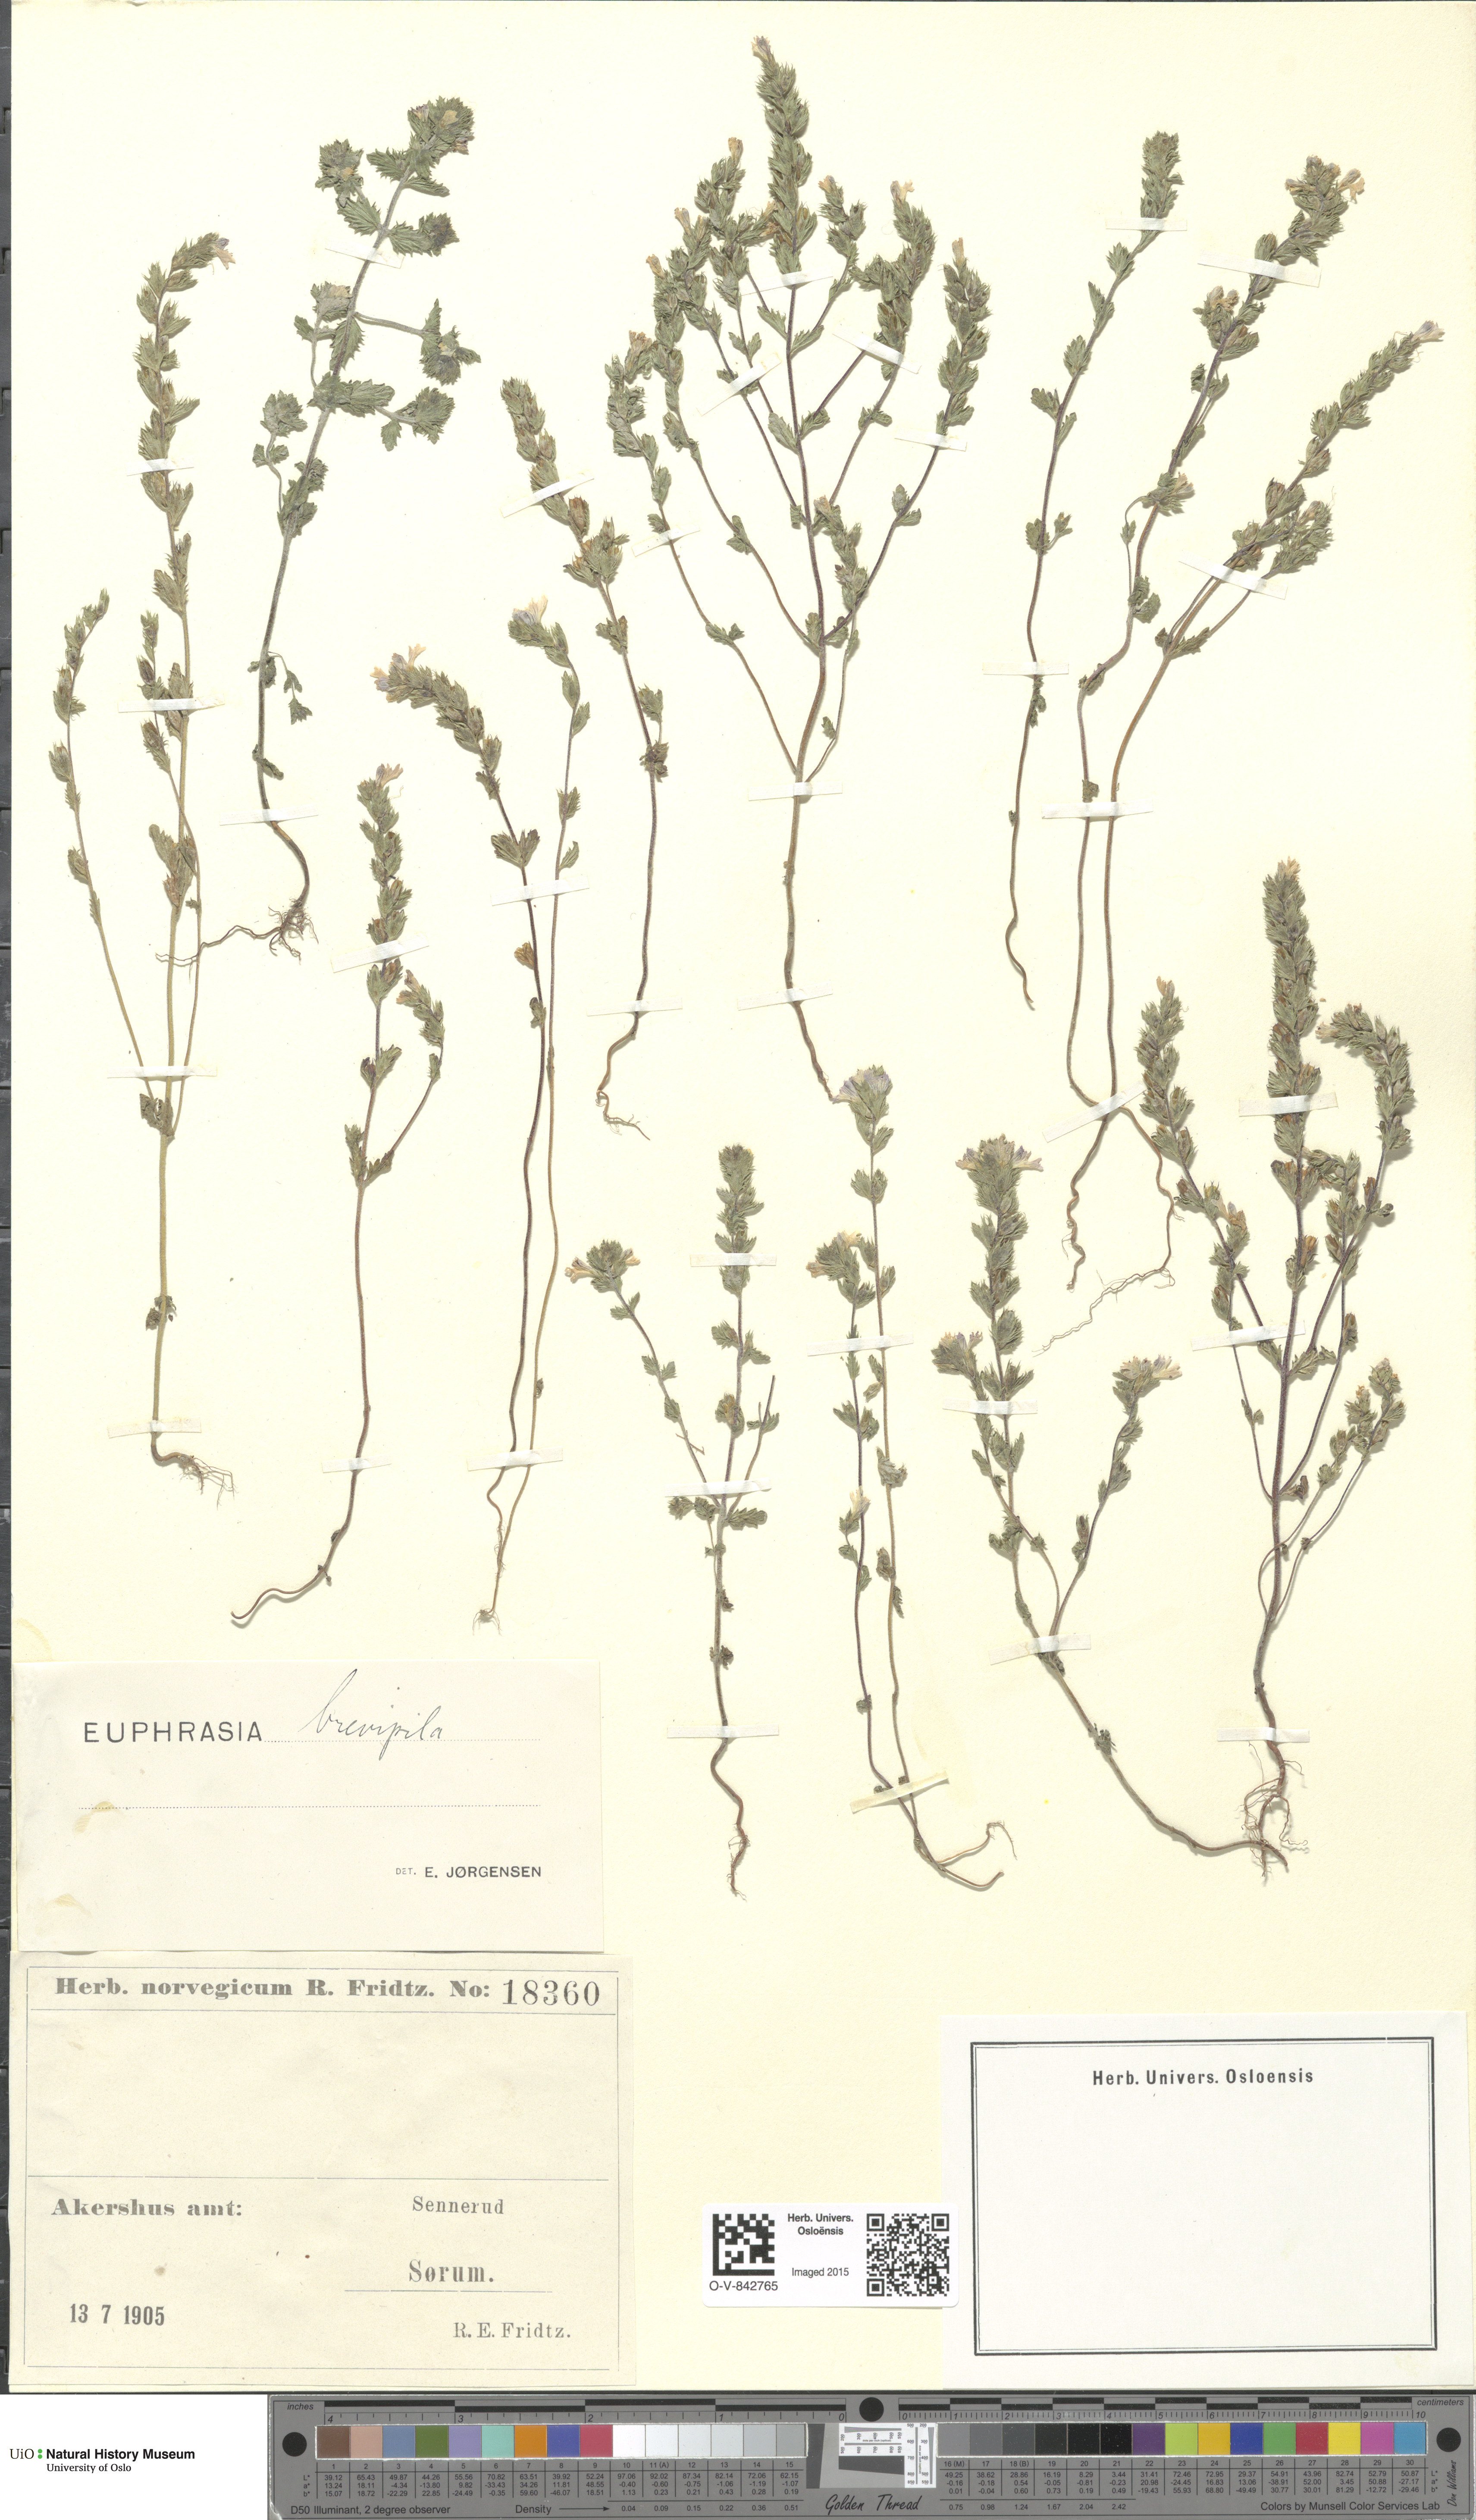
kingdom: Plantae
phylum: Tracheophyta
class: Magnoliopsida
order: Lamiales
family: Orobanchaceae
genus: Euphrasia
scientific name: Euphrasia vernalis
